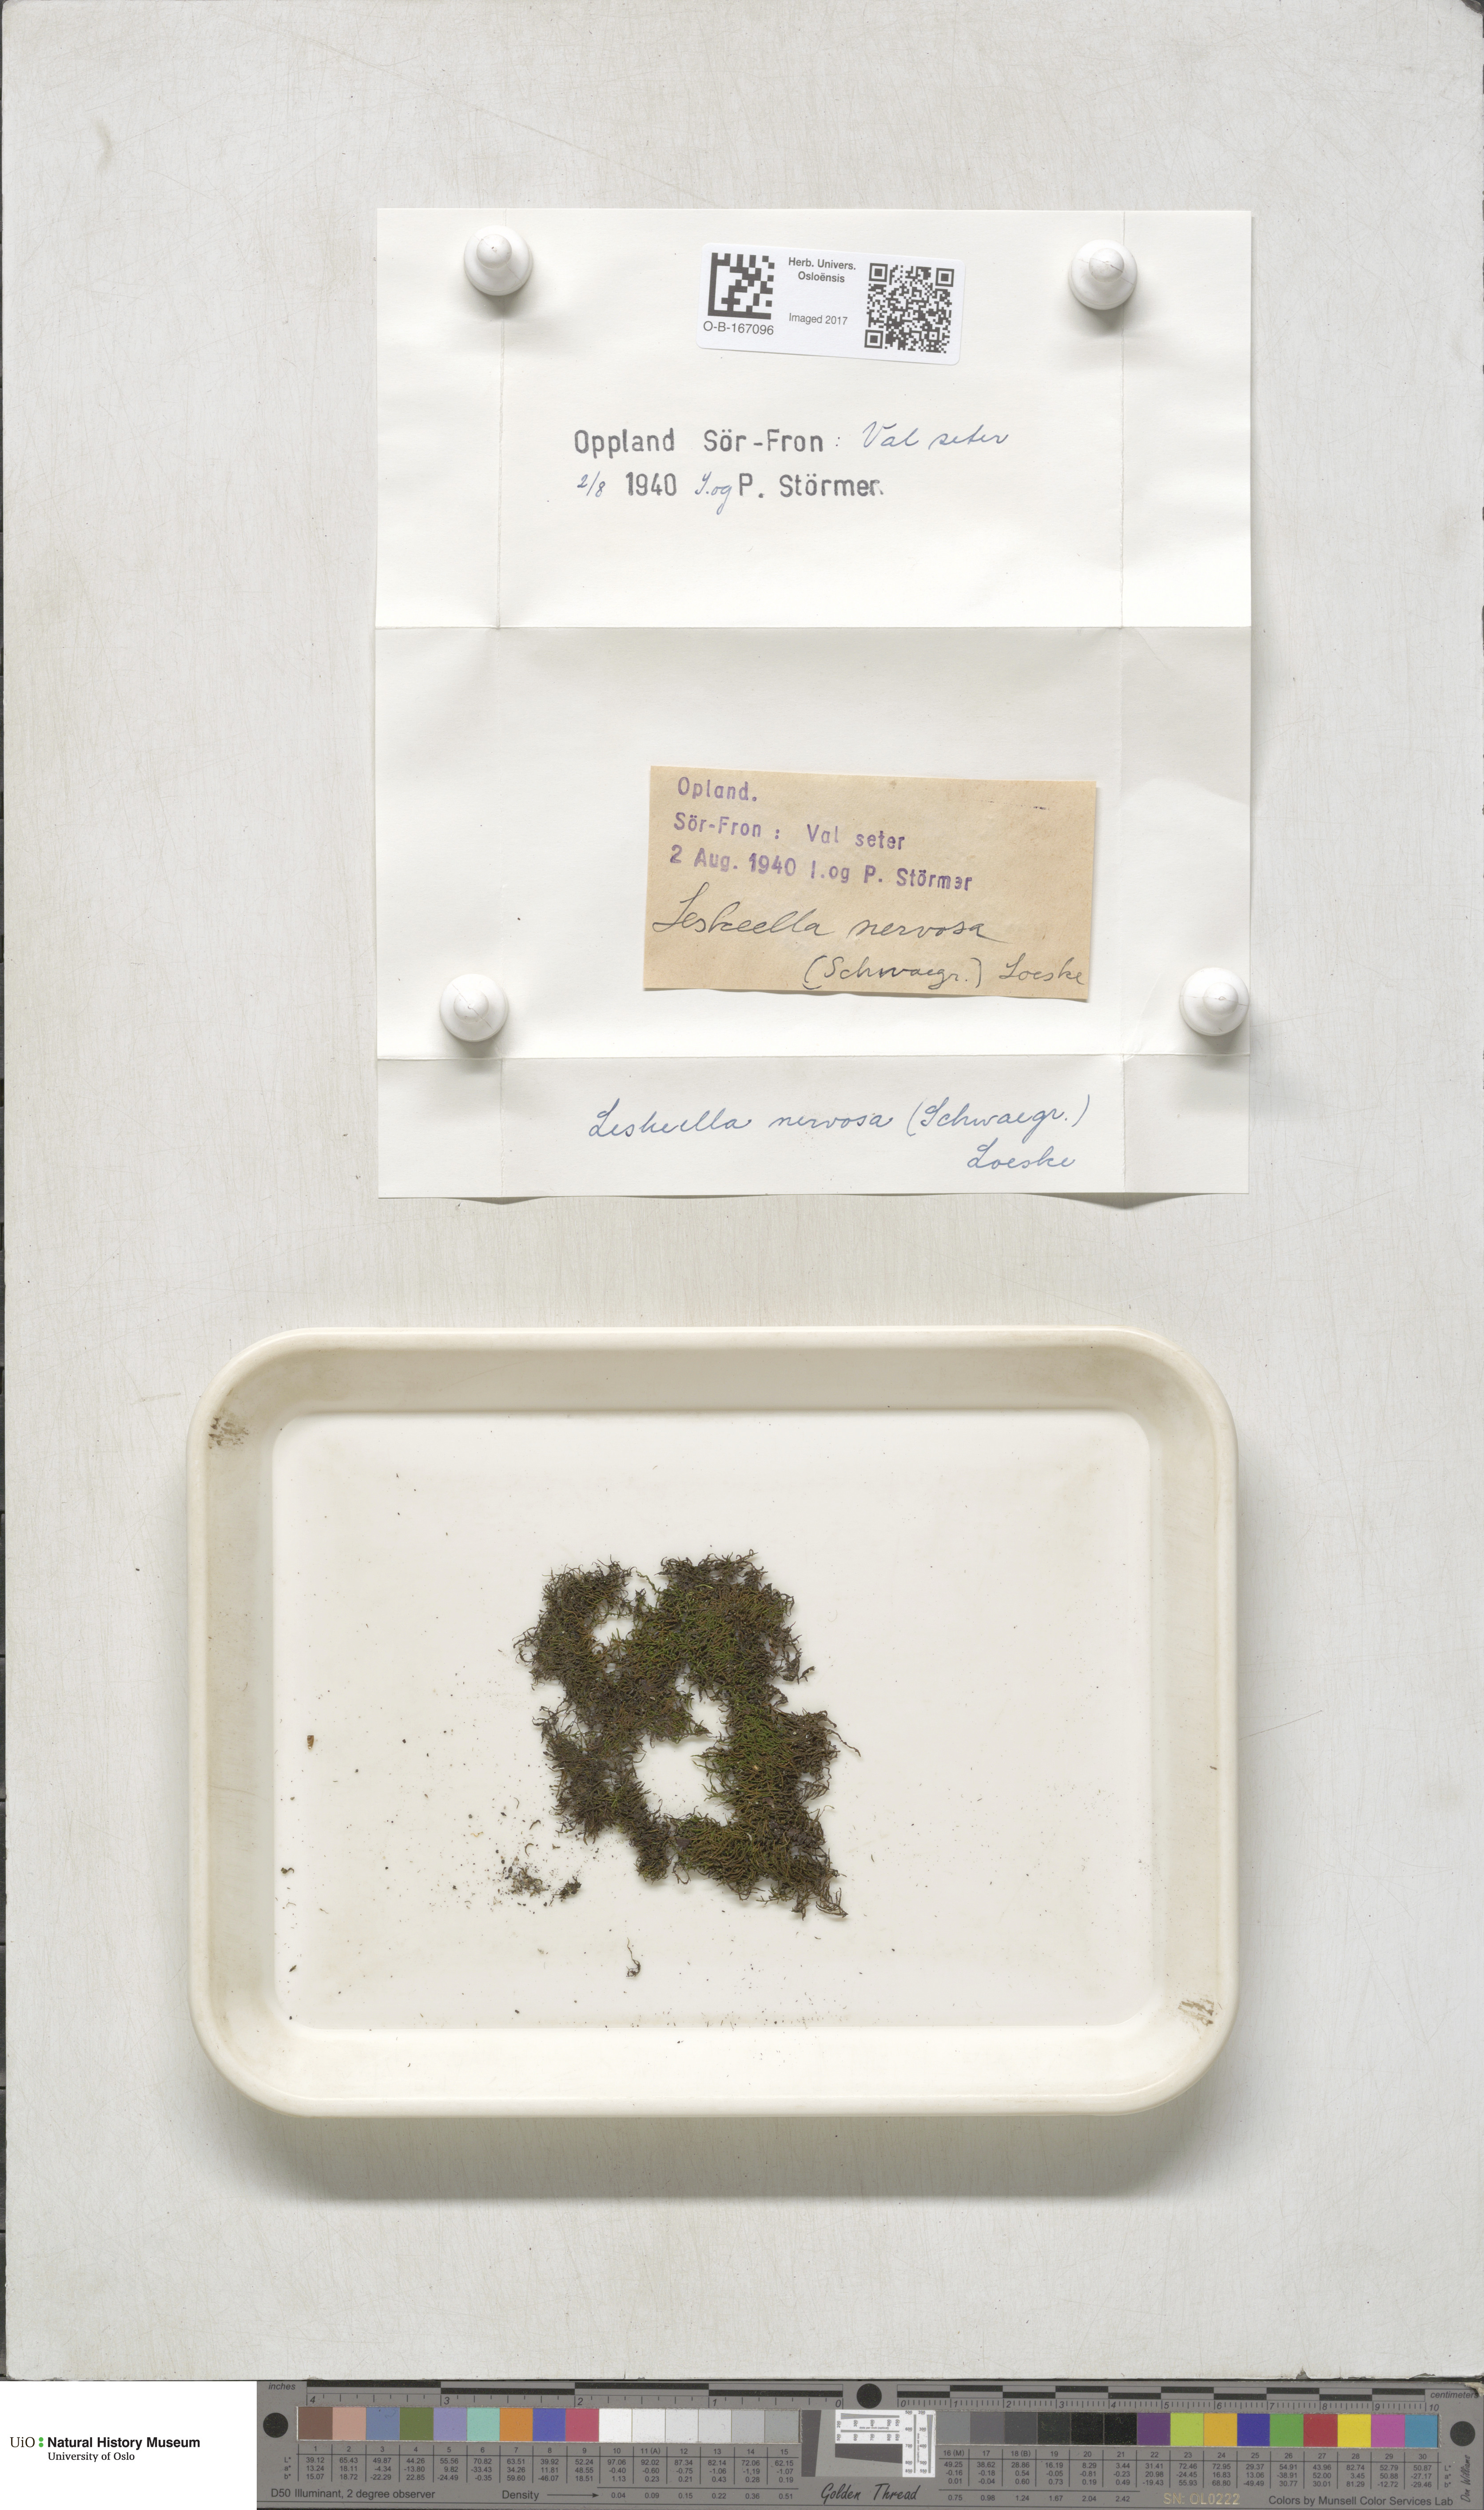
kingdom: Plantae
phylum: Bryophyta
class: Bryopsida
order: Hypnales
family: Pseudoleskeellaceae
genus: Pseudoleskeella
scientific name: Pseudoleskeella nervosa
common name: Nerved leske's moss
